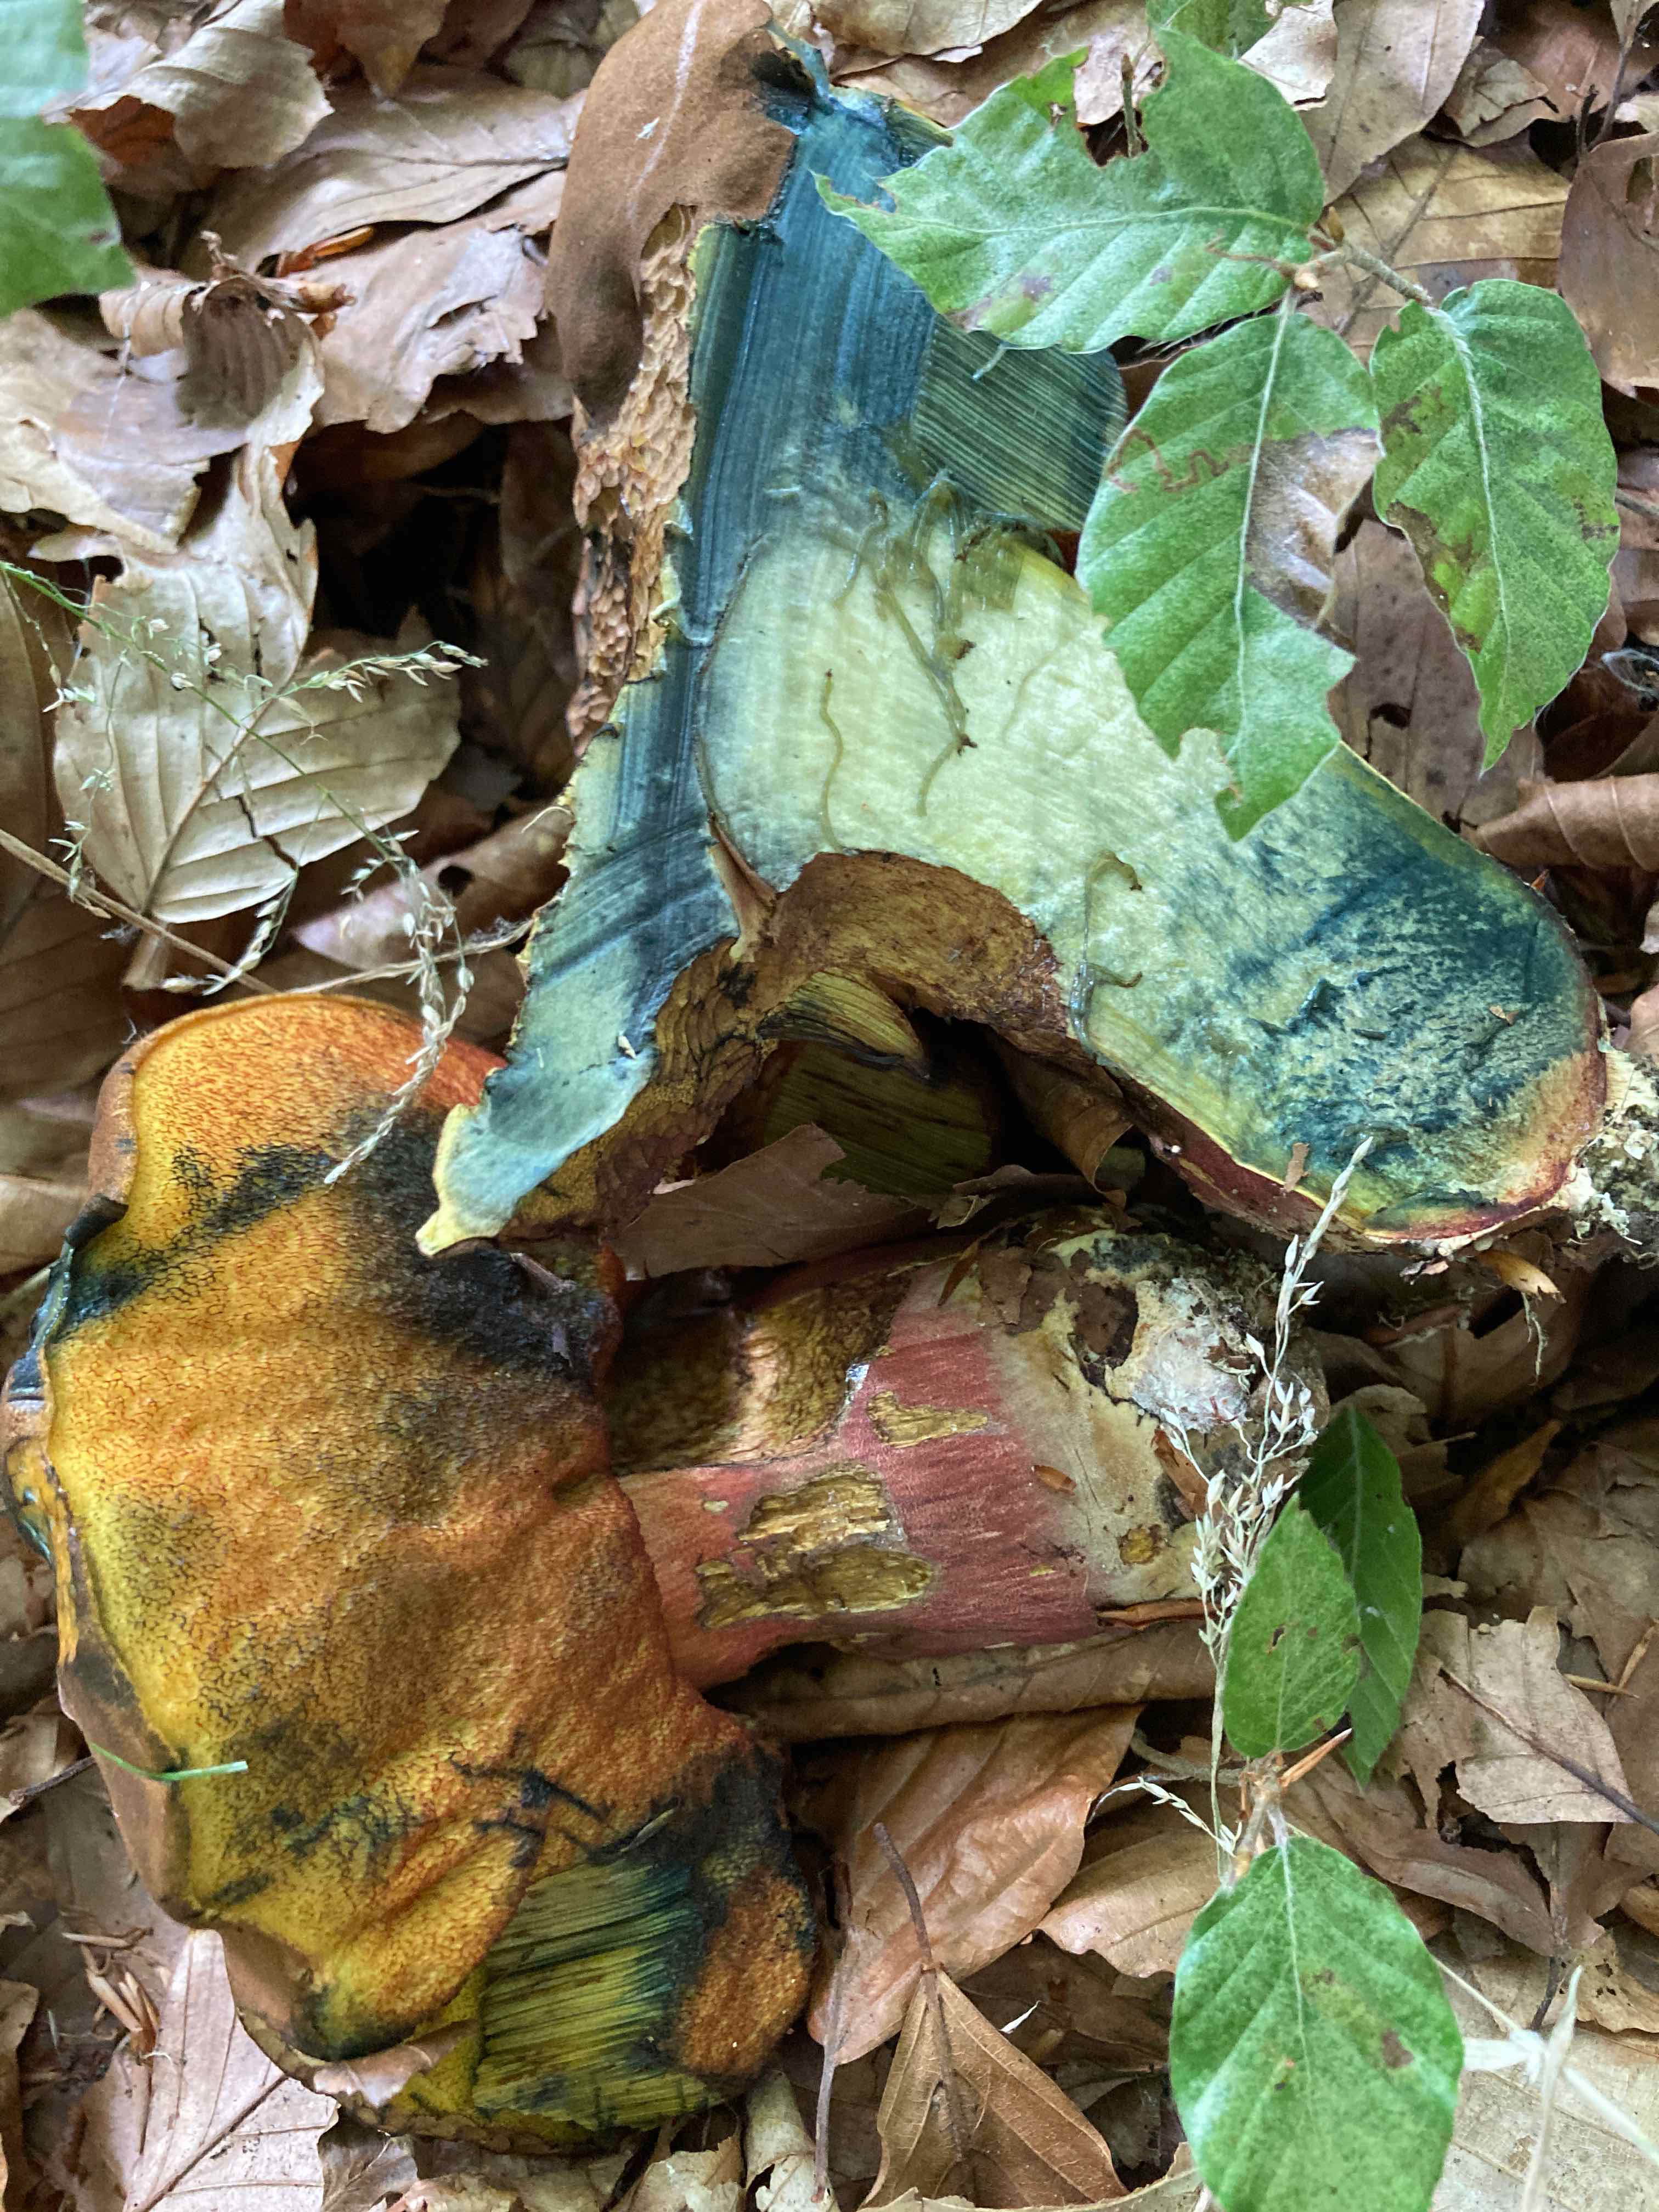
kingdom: Fungi
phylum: Basidiomycota
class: Agaricomycetes
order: Boletales
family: Boletaceae
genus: Neoboletus
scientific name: Neoboletus xanthopus
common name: finprikket indigorørhat
